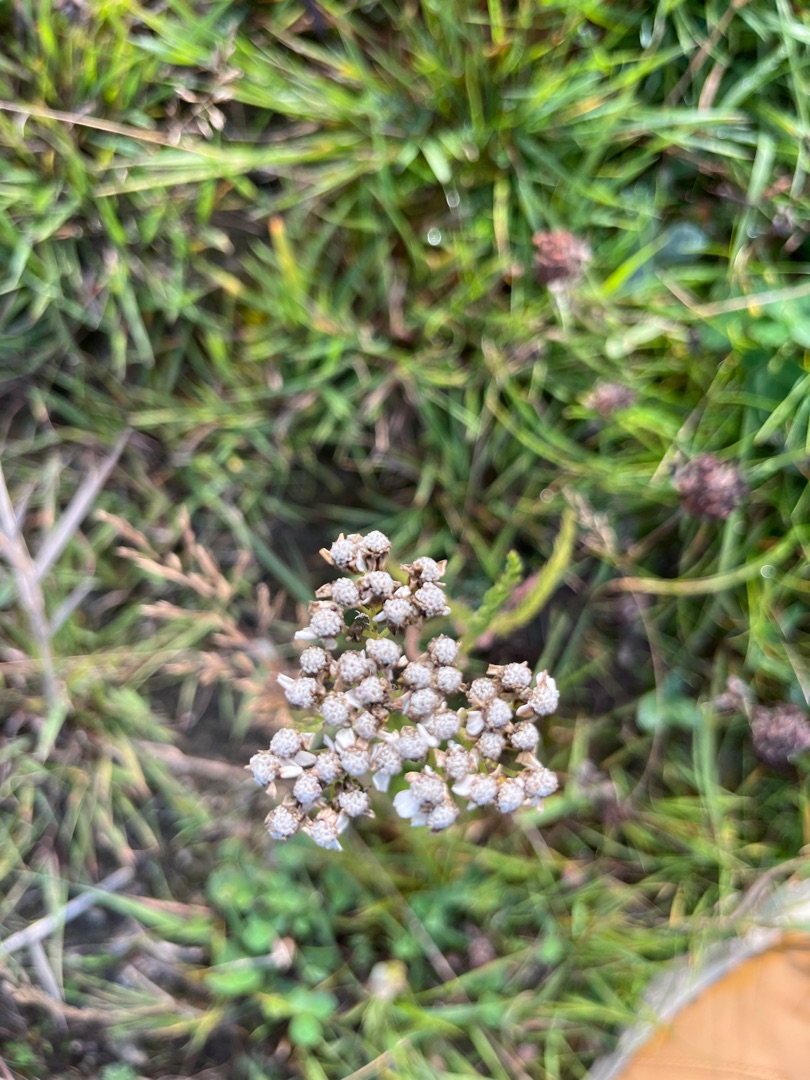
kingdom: Plantae
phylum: Tracheophyta
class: Magnoliopsida
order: Asterales
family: Asteraceae
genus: Achillea
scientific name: Achillea millefolium
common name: Almindelig røllike
